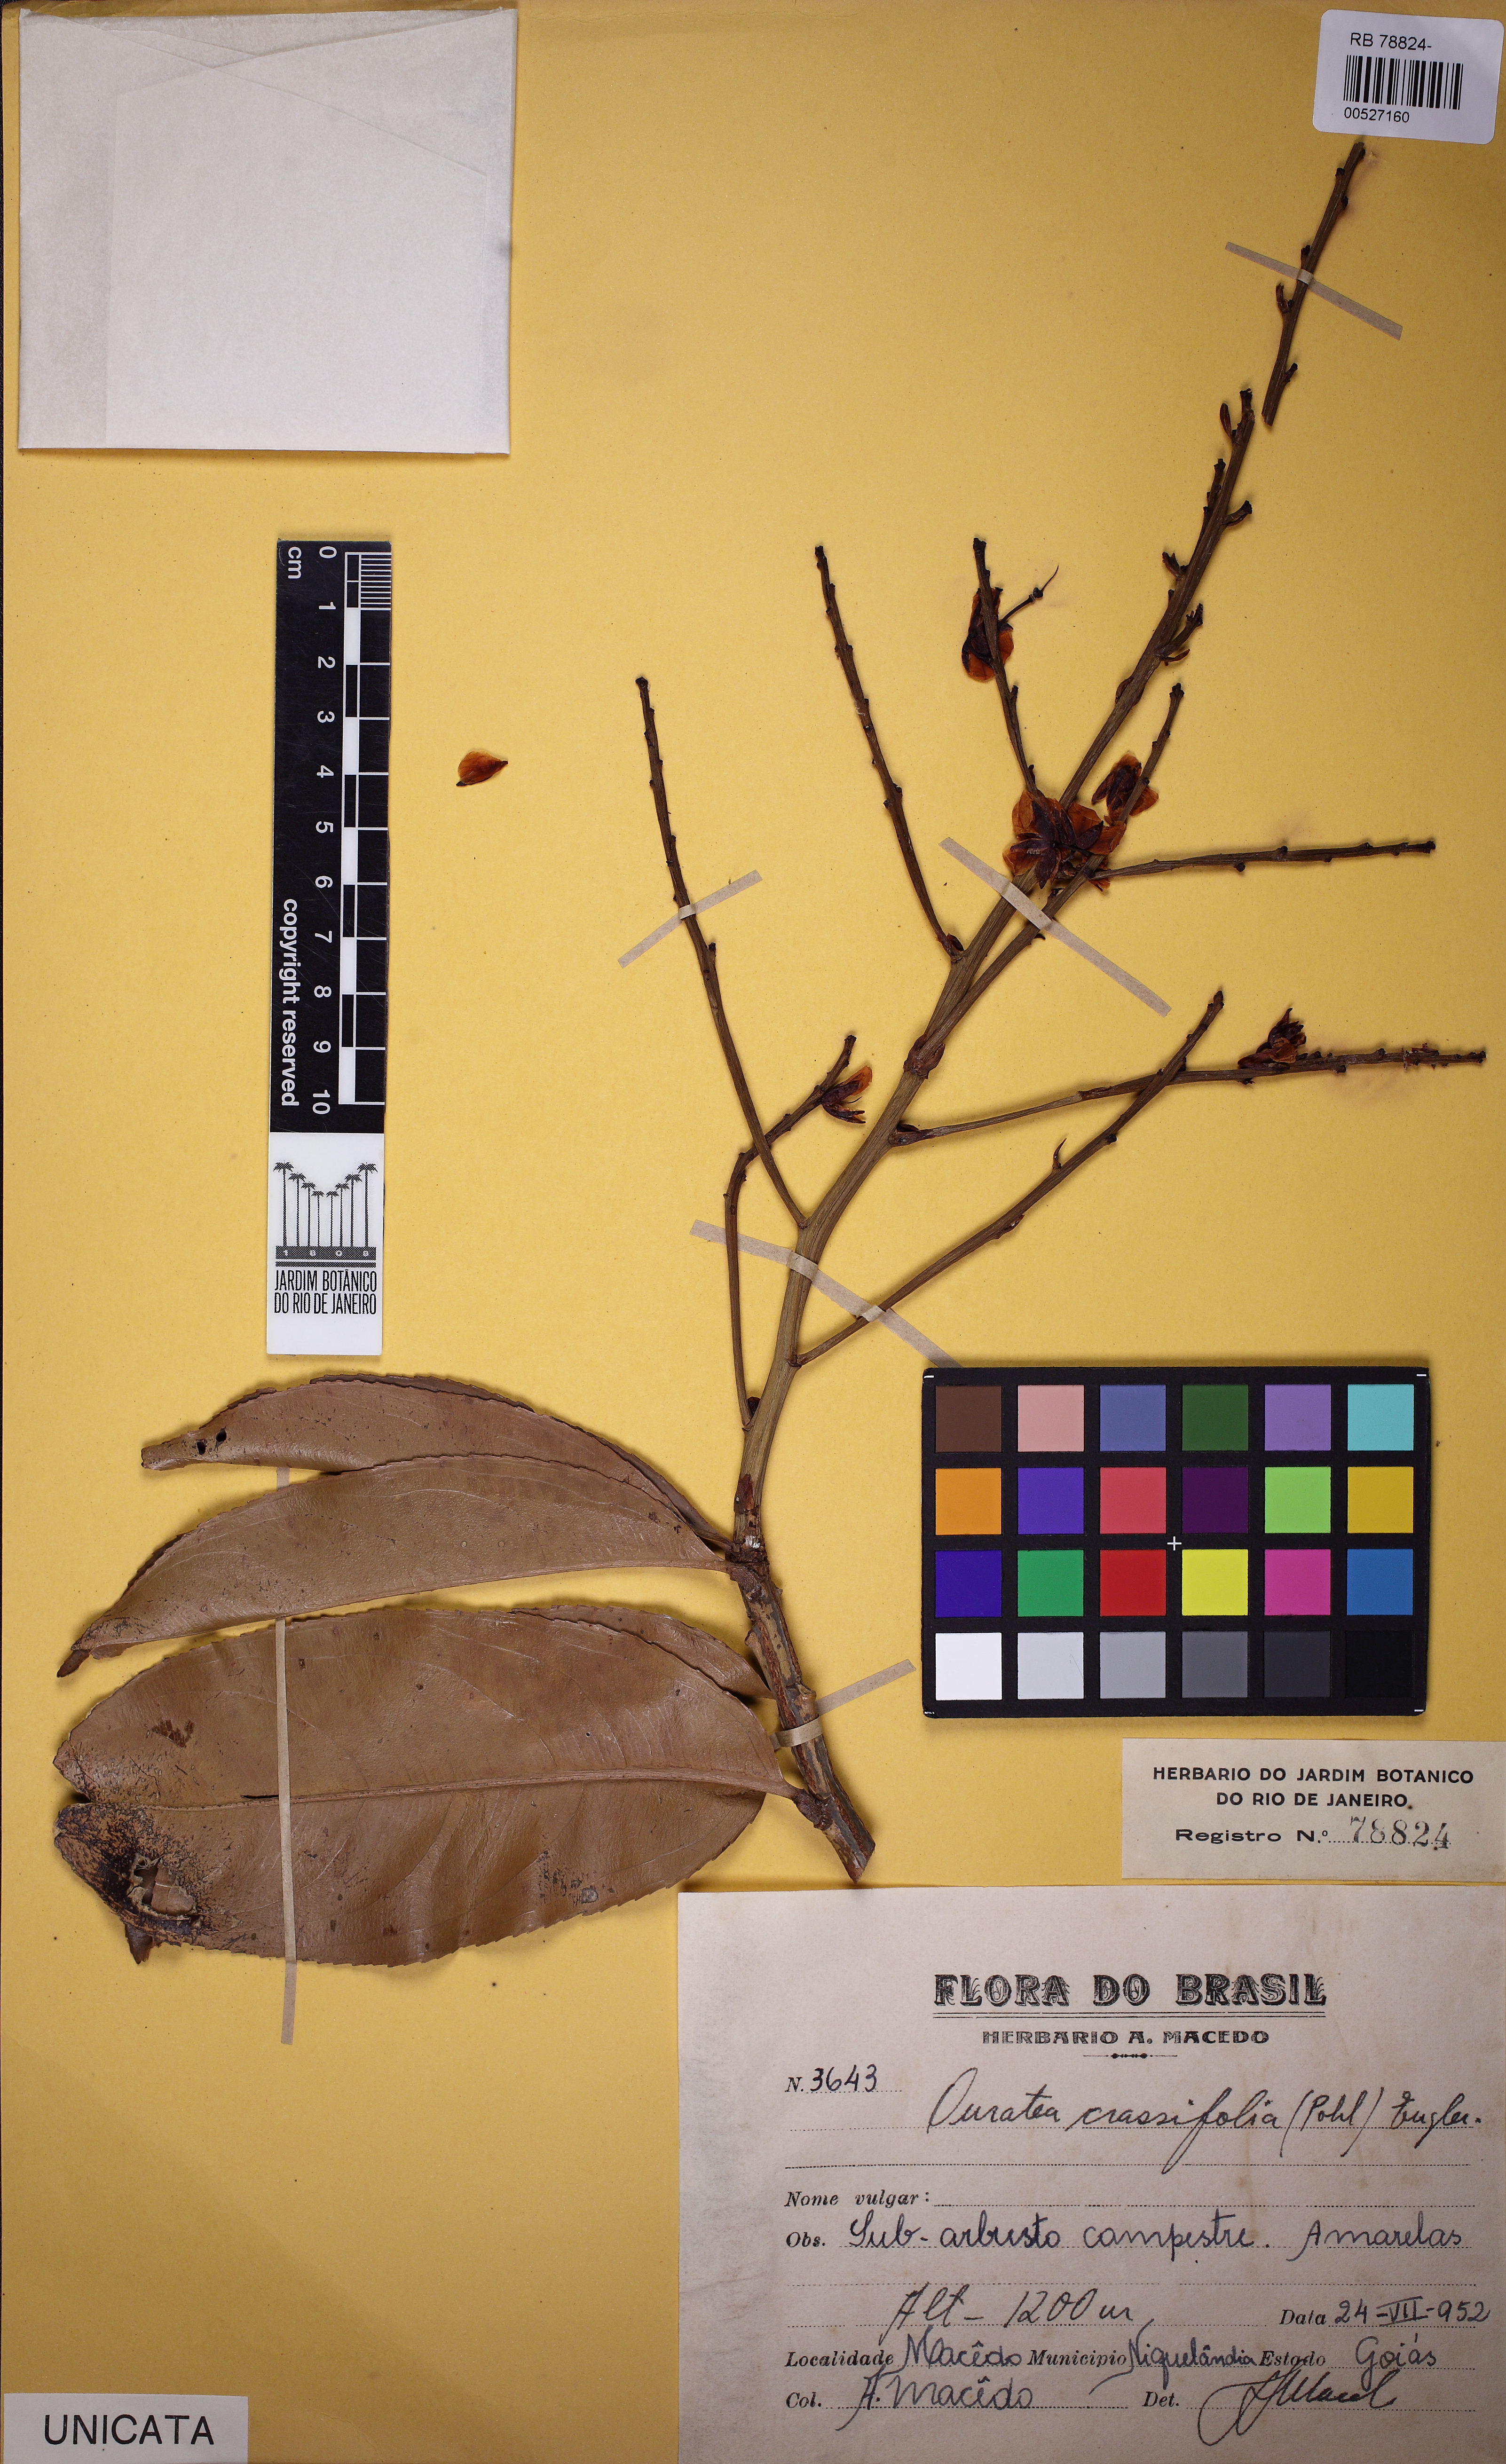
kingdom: Plantae
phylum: Tracheophyta
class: Magnoliopsida
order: Malpighiales
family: Ochnaceae
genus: Ouratea
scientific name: Ouratea crassifolia
